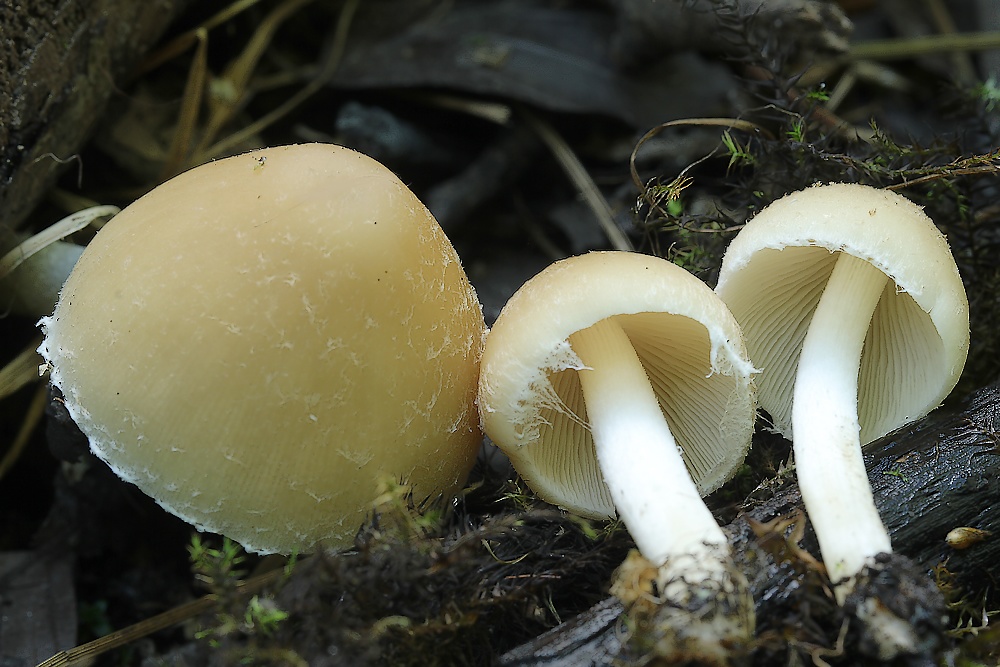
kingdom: Fungi
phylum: Basidiomycota
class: Agaricomycetes
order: Agaricales
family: Psathyrellaceae
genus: Candolleomyces
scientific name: Candolleomyces candolleanus
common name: Candolles mørkhat
